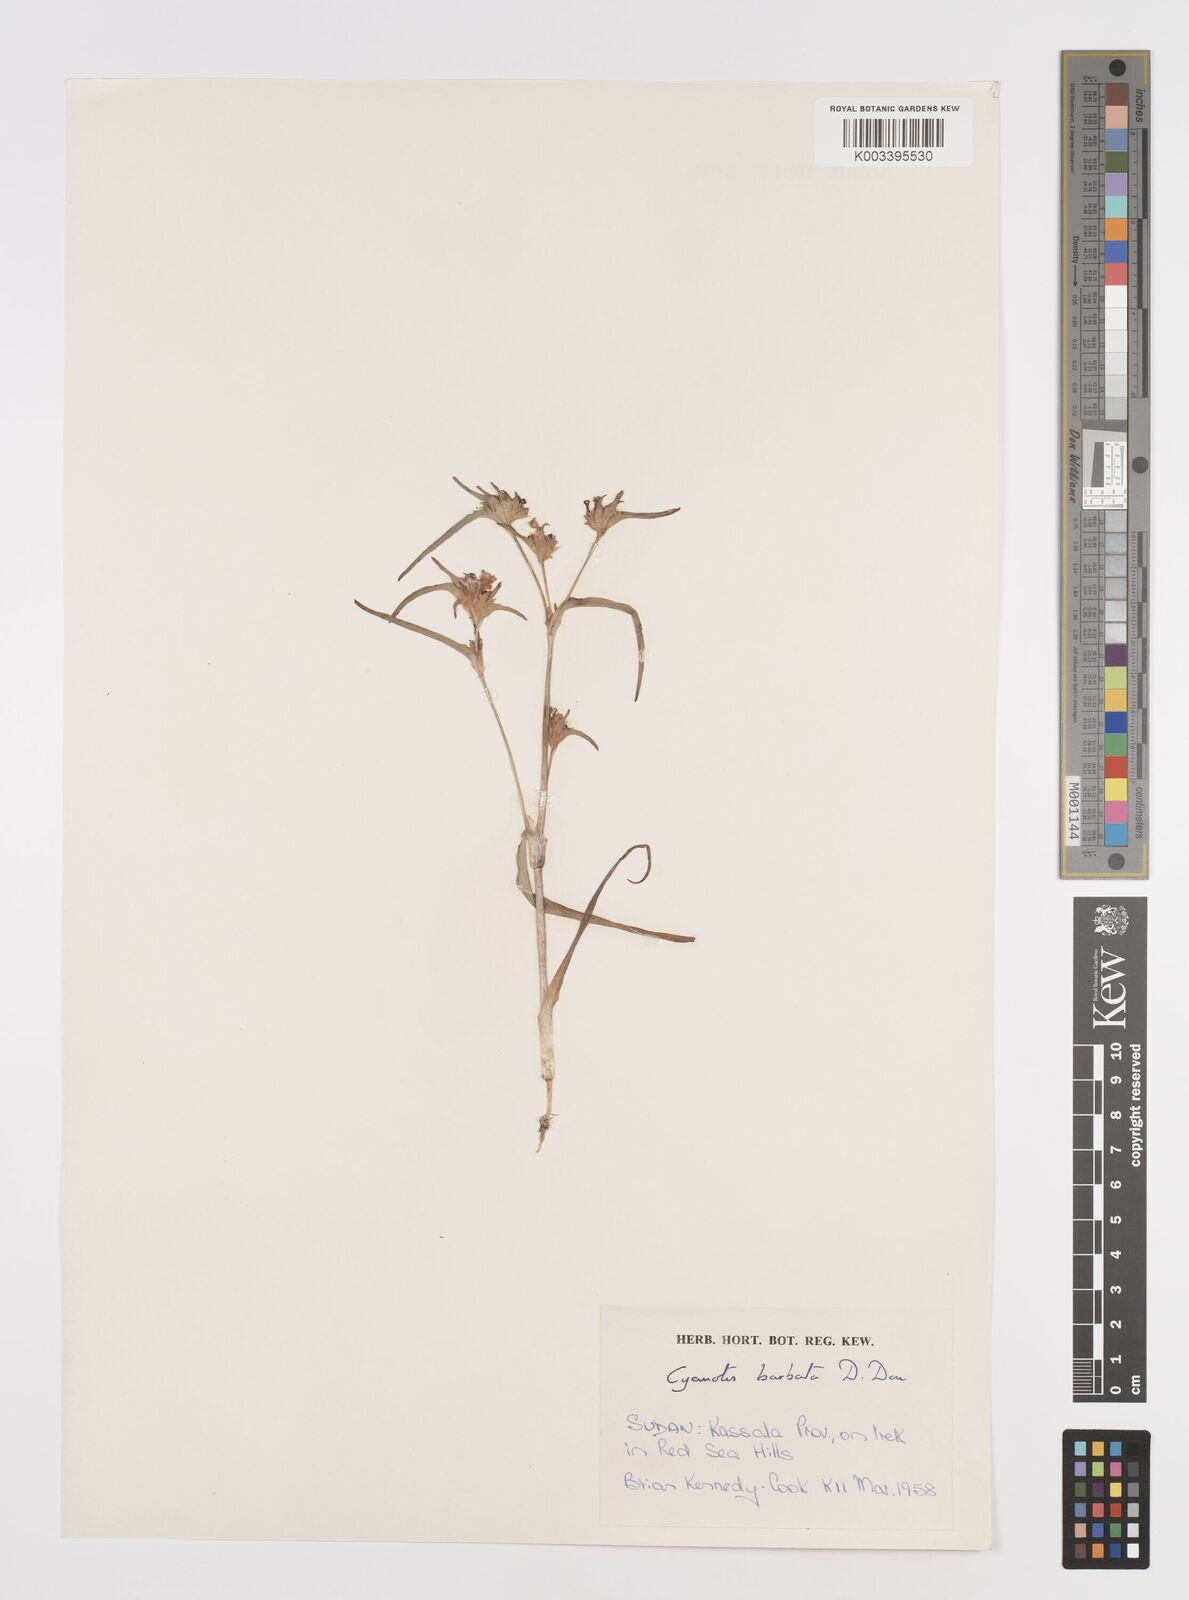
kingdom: Plantae
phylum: Tracheophyta
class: Liliopsida
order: Commelinales
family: Commelinaceae
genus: Cyanotis
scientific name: Cyanotis vaga
